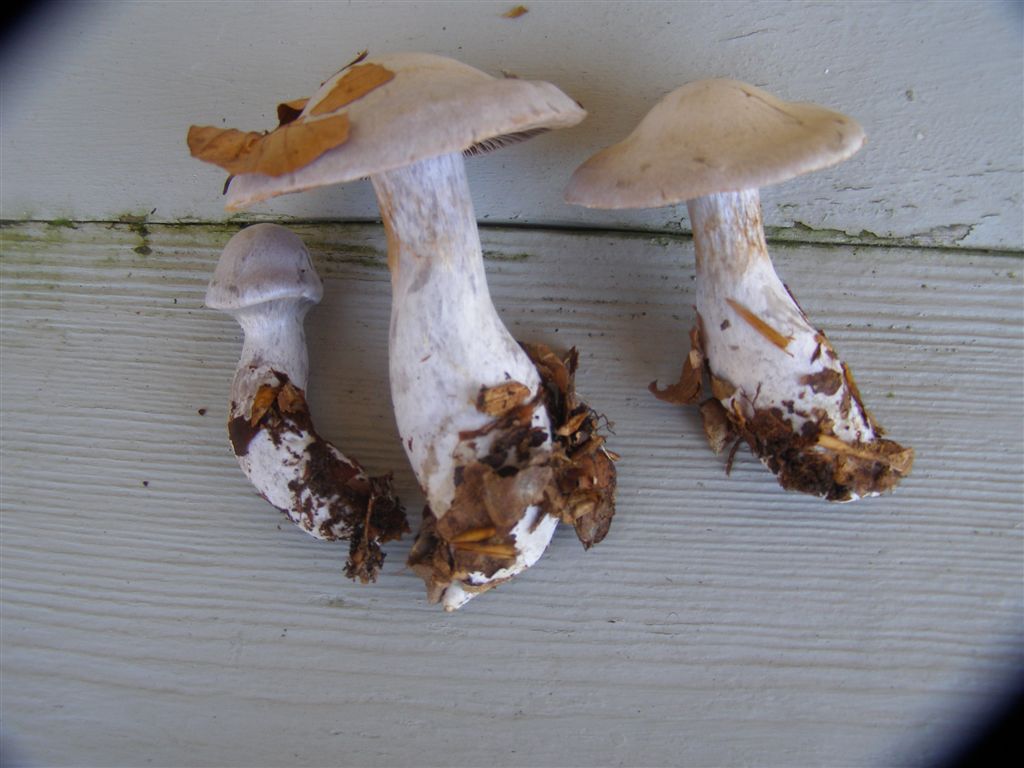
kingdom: Fungi
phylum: Basidiomycota
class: Agaricomycetes
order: Agaricales
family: Cortinariaceae
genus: Cortinarius
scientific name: Cortinarius alboviolaceus
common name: lysviolet slørhat
